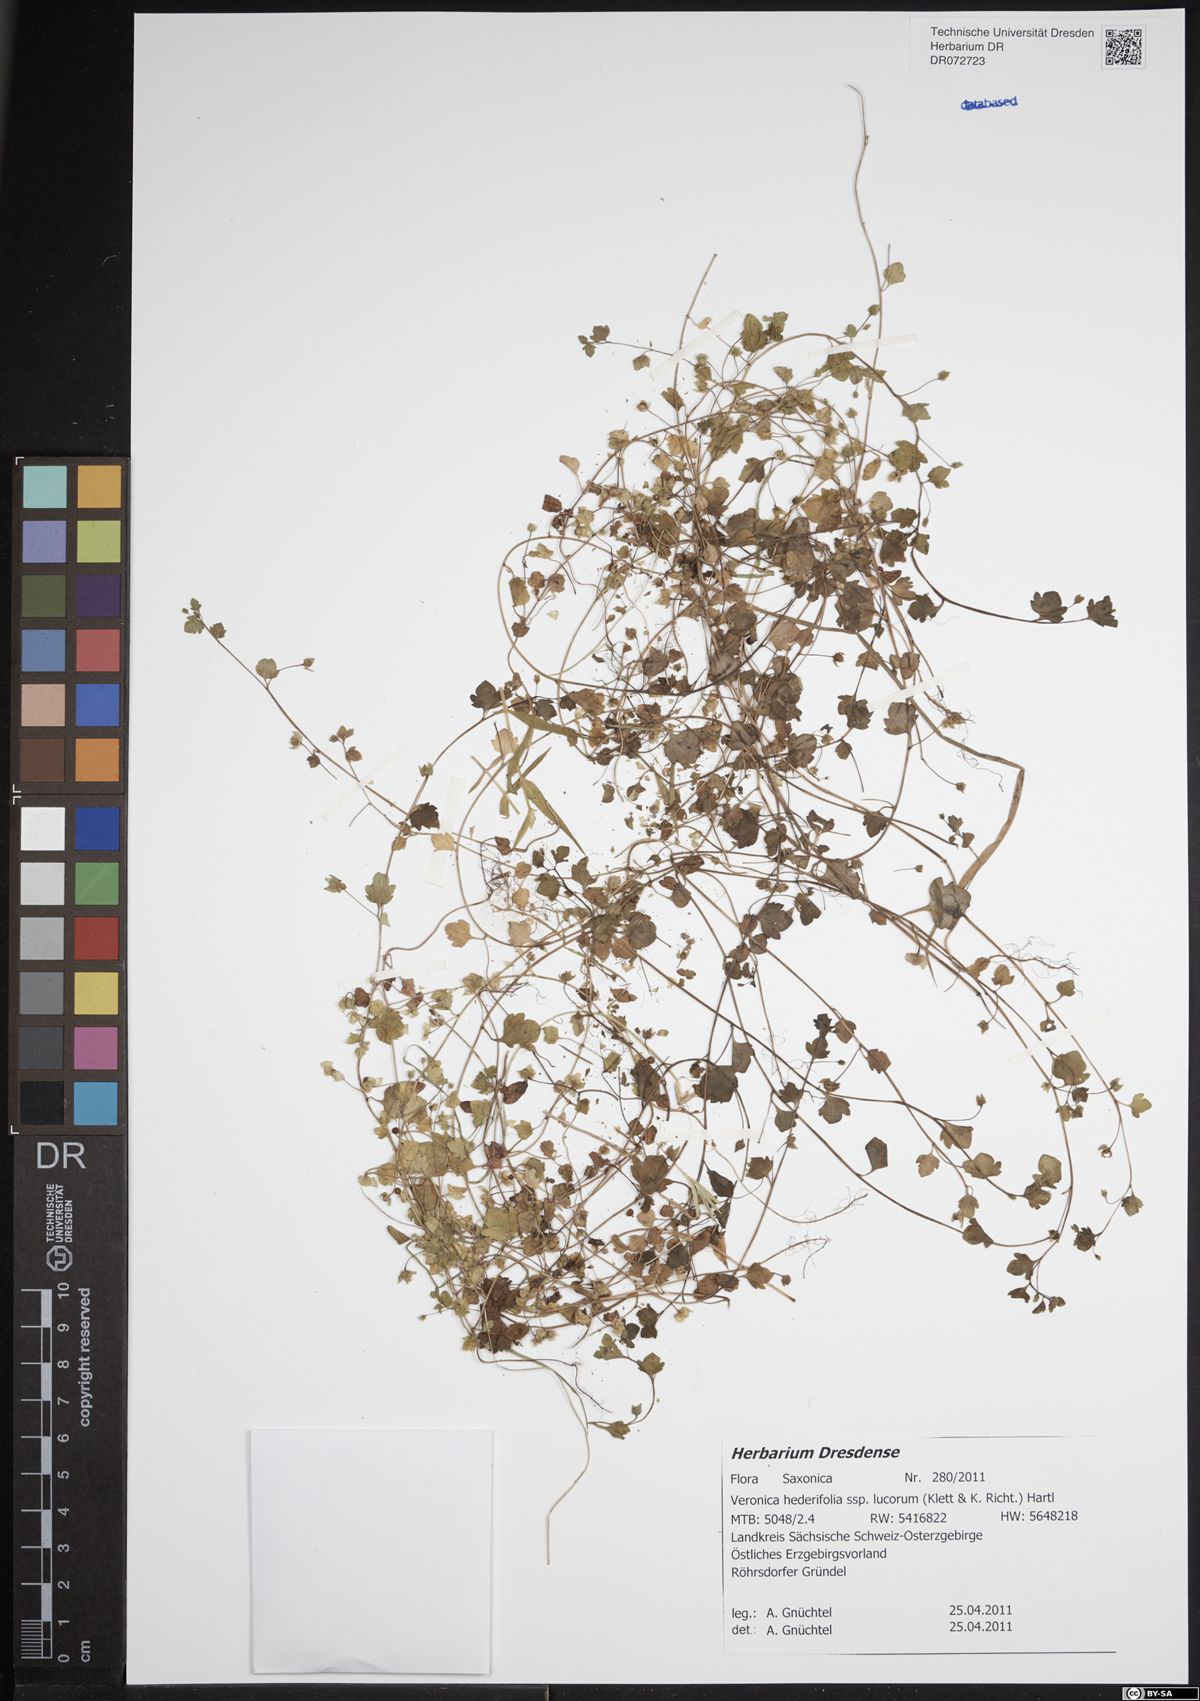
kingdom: Plantae
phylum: Tracheophyta
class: Magnoliopsida
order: Lamiales
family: Plantaginaceae
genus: Veronica
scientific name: Veronica hederifolia
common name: Ivy-leaved speedwell
